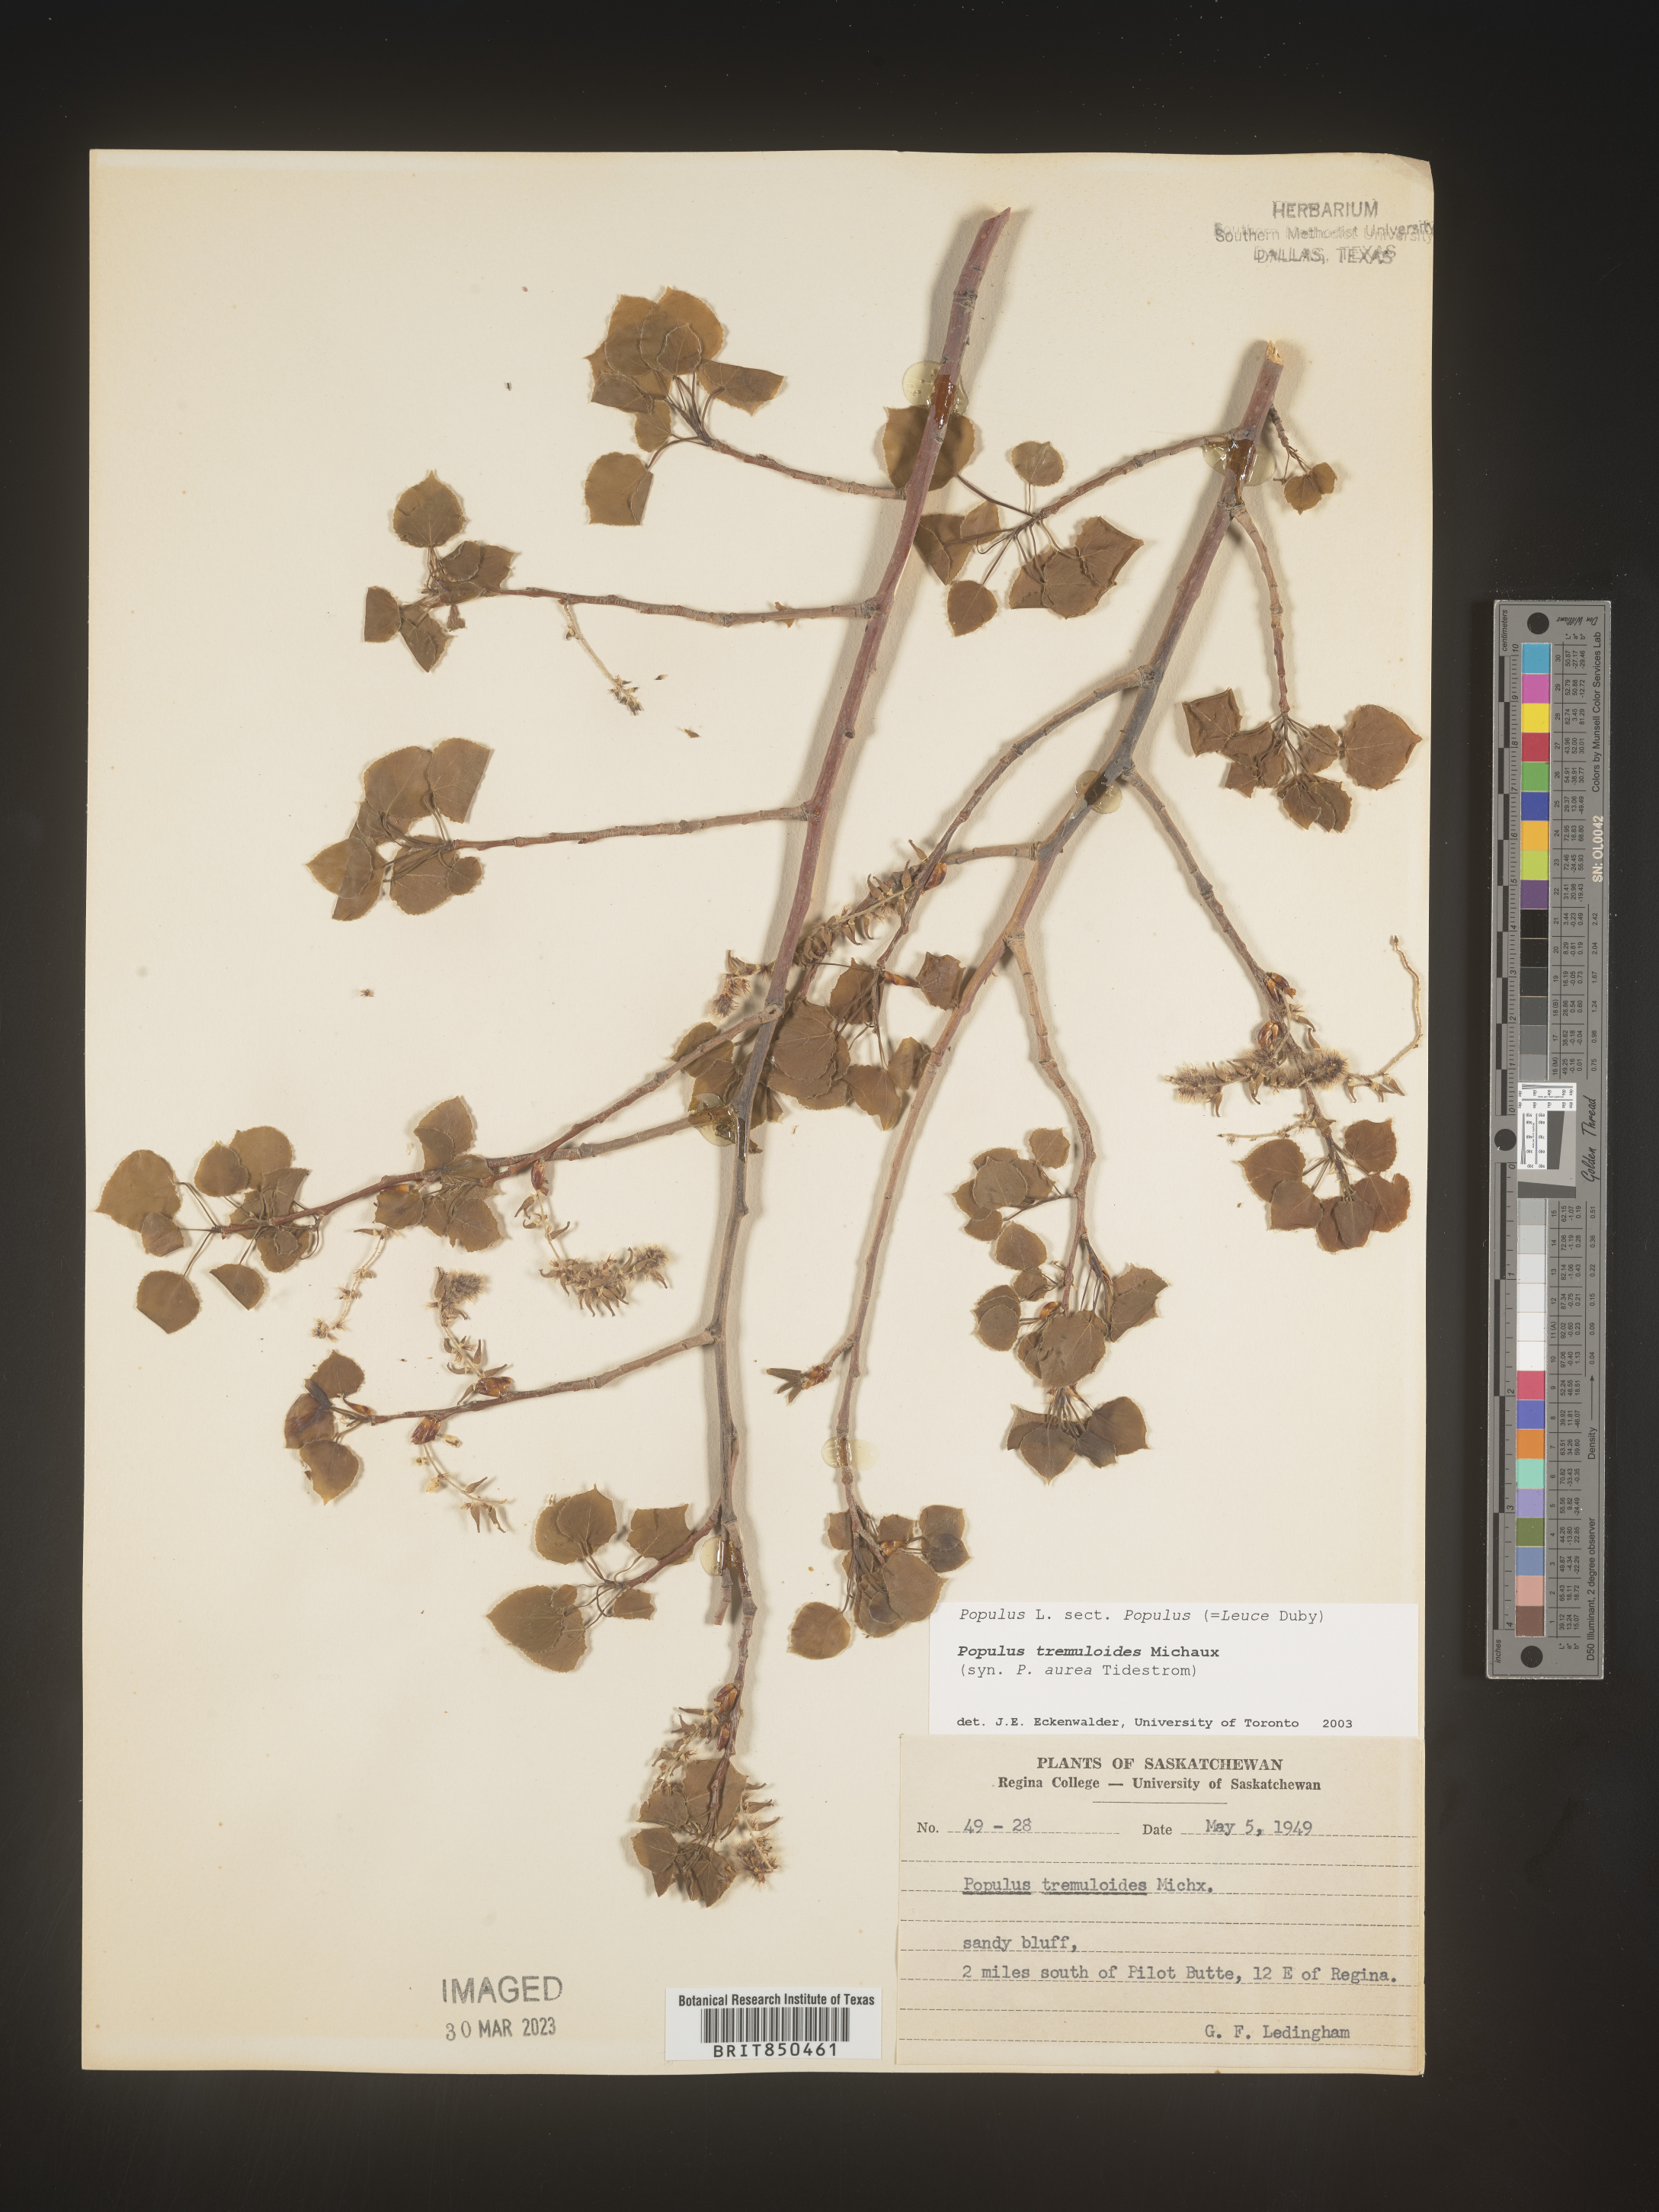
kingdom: Plantae
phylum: Tracheophyta
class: Magnoliopsida
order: Malpighiales
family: Salicaceae
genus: Populus
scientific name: Populus tremuloides
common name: Quaking aspen
